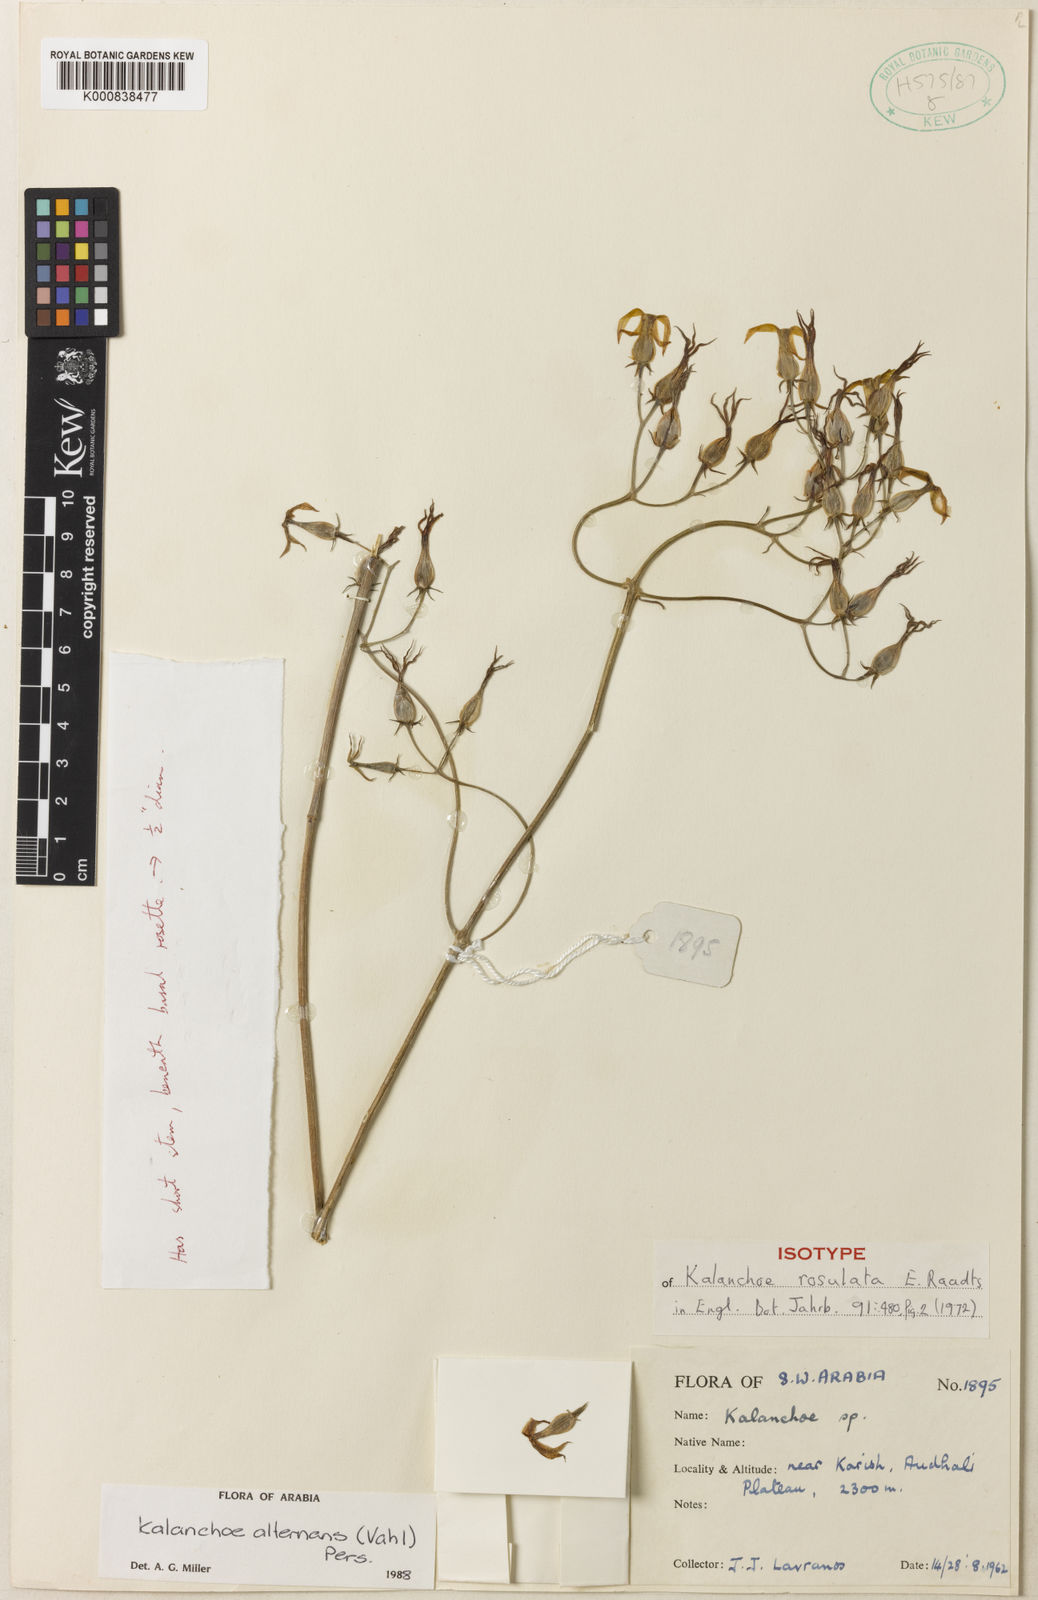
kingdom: Plantae
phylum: Tracheophyta
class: Magnoliopsida
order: Saxifragales
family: Crassulaceae
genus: Kalanchoe
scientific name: Kalanchoe alternans
